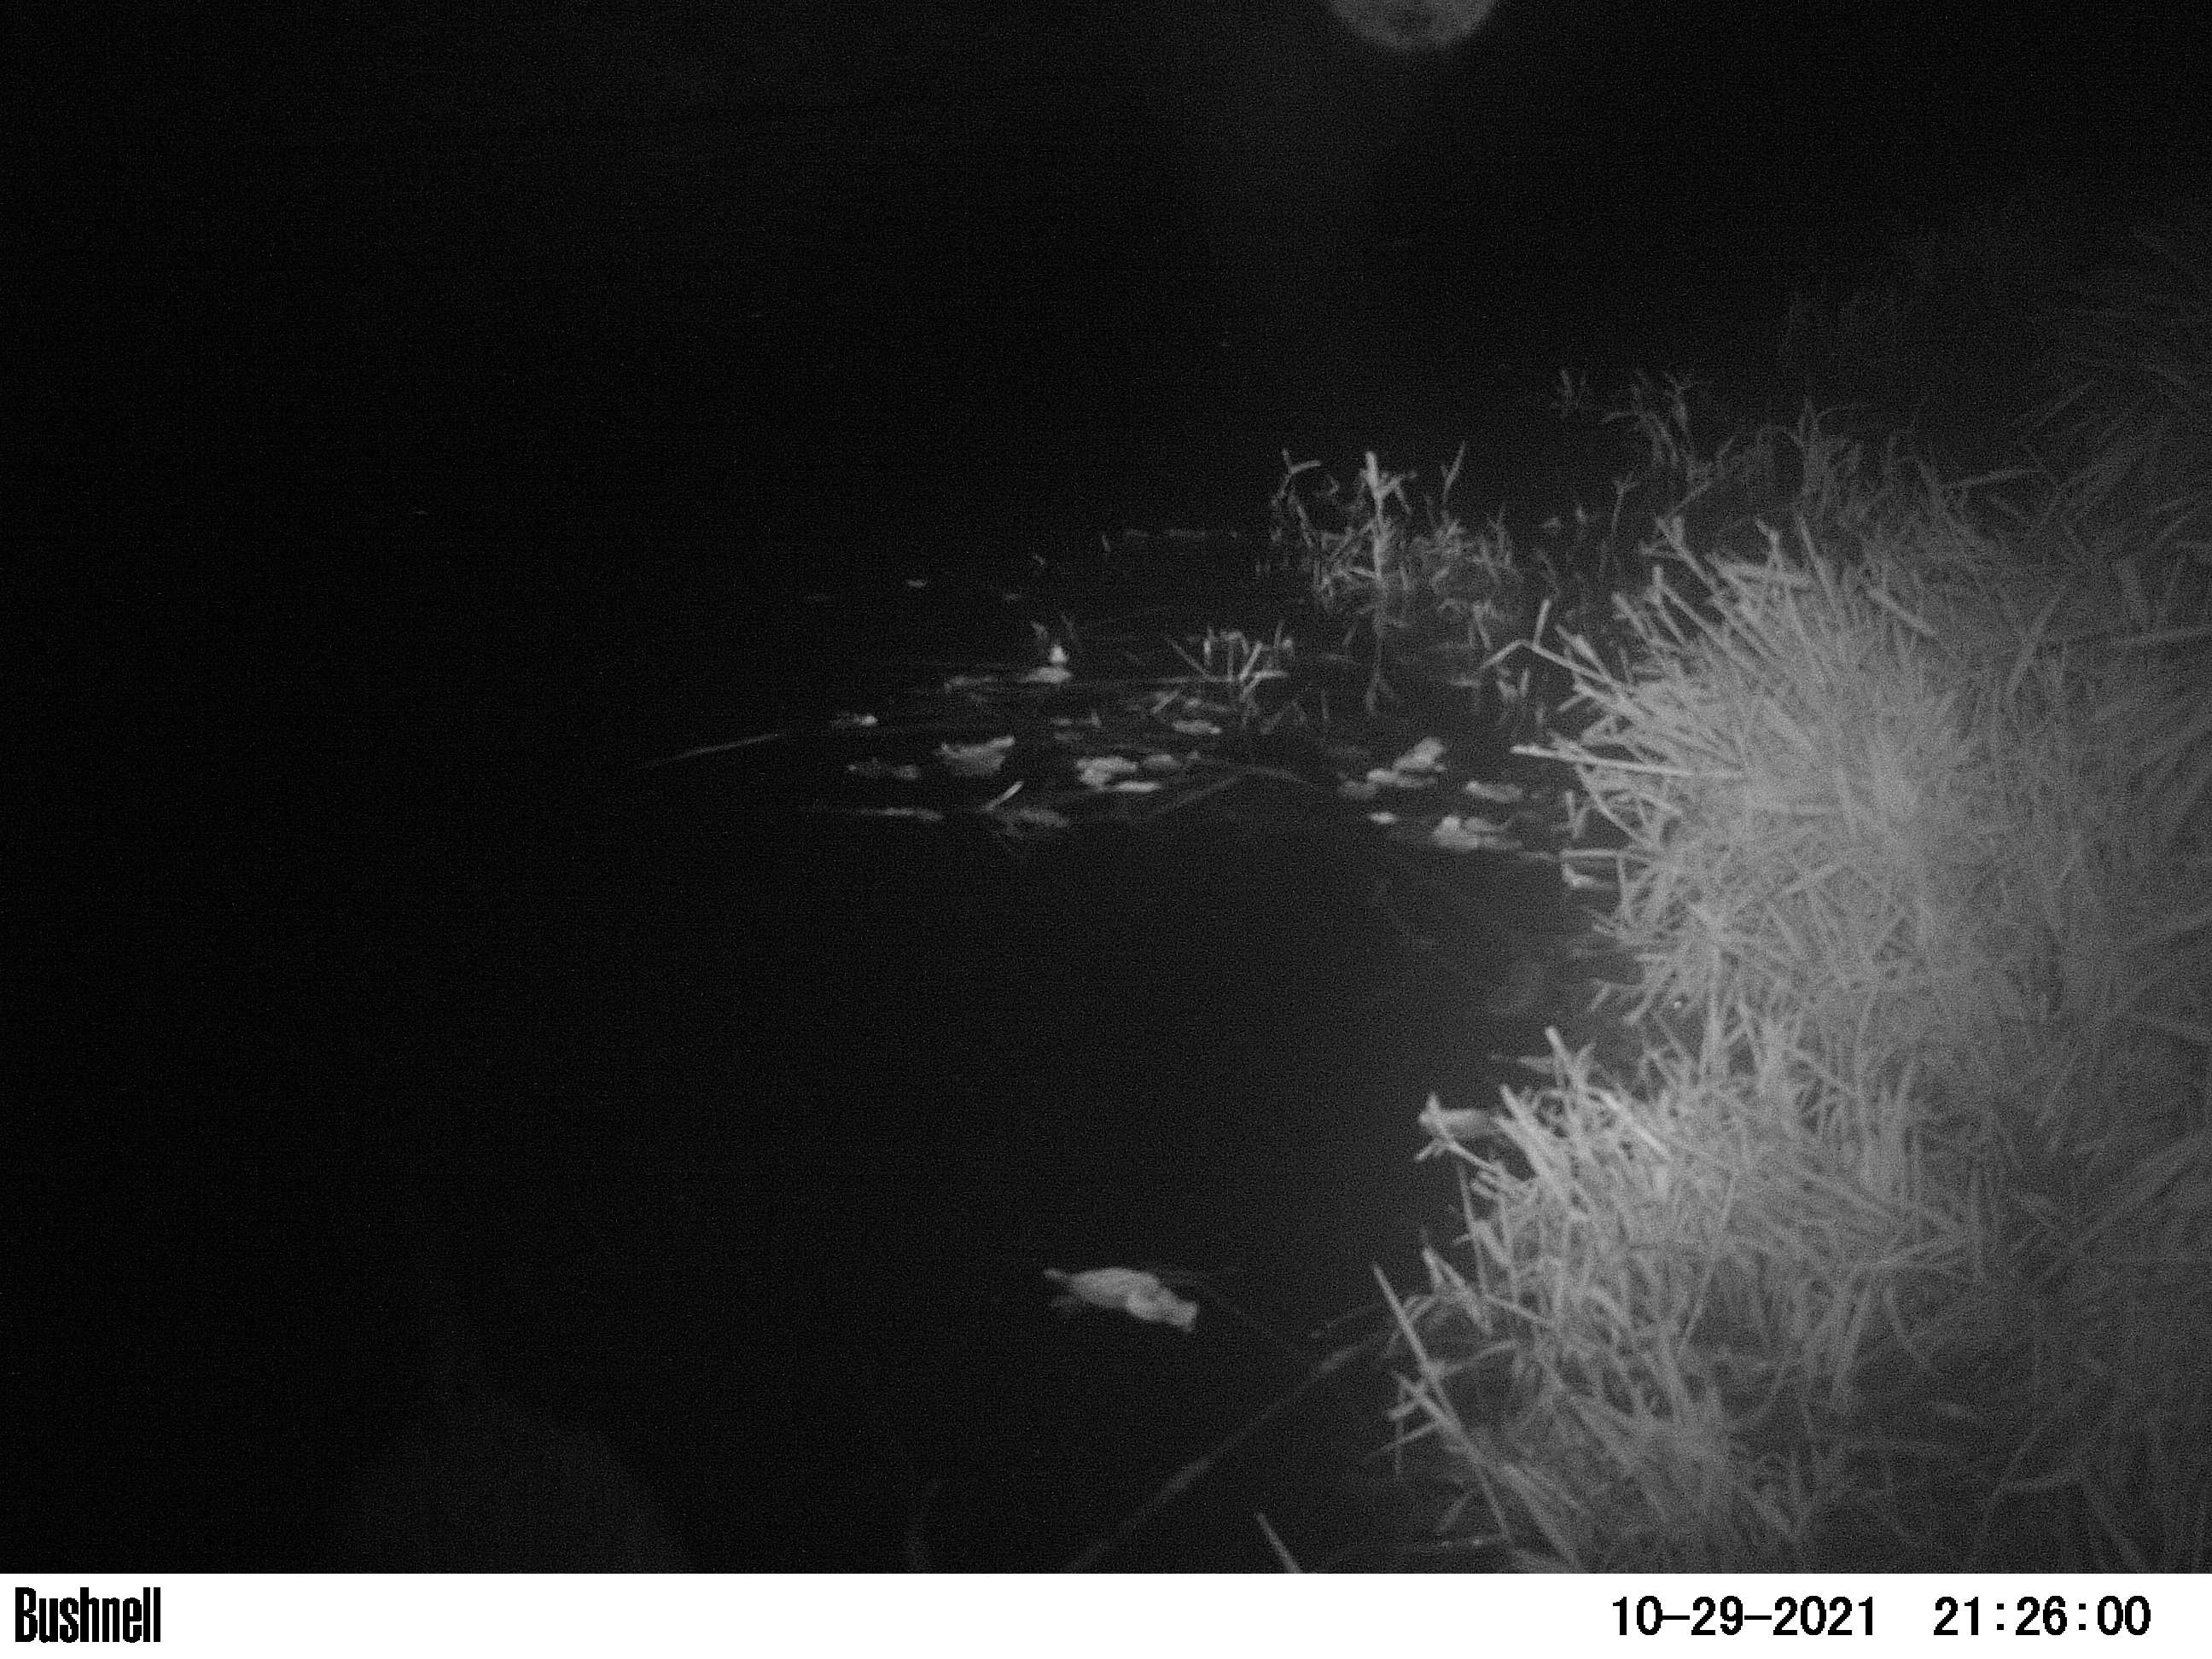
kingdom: Animalia
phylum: Chordata
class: Mammalia
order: Rodentia
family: Cricetidae
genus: Ondatra
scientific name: Ondatra zibethicus
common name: Muskrat
